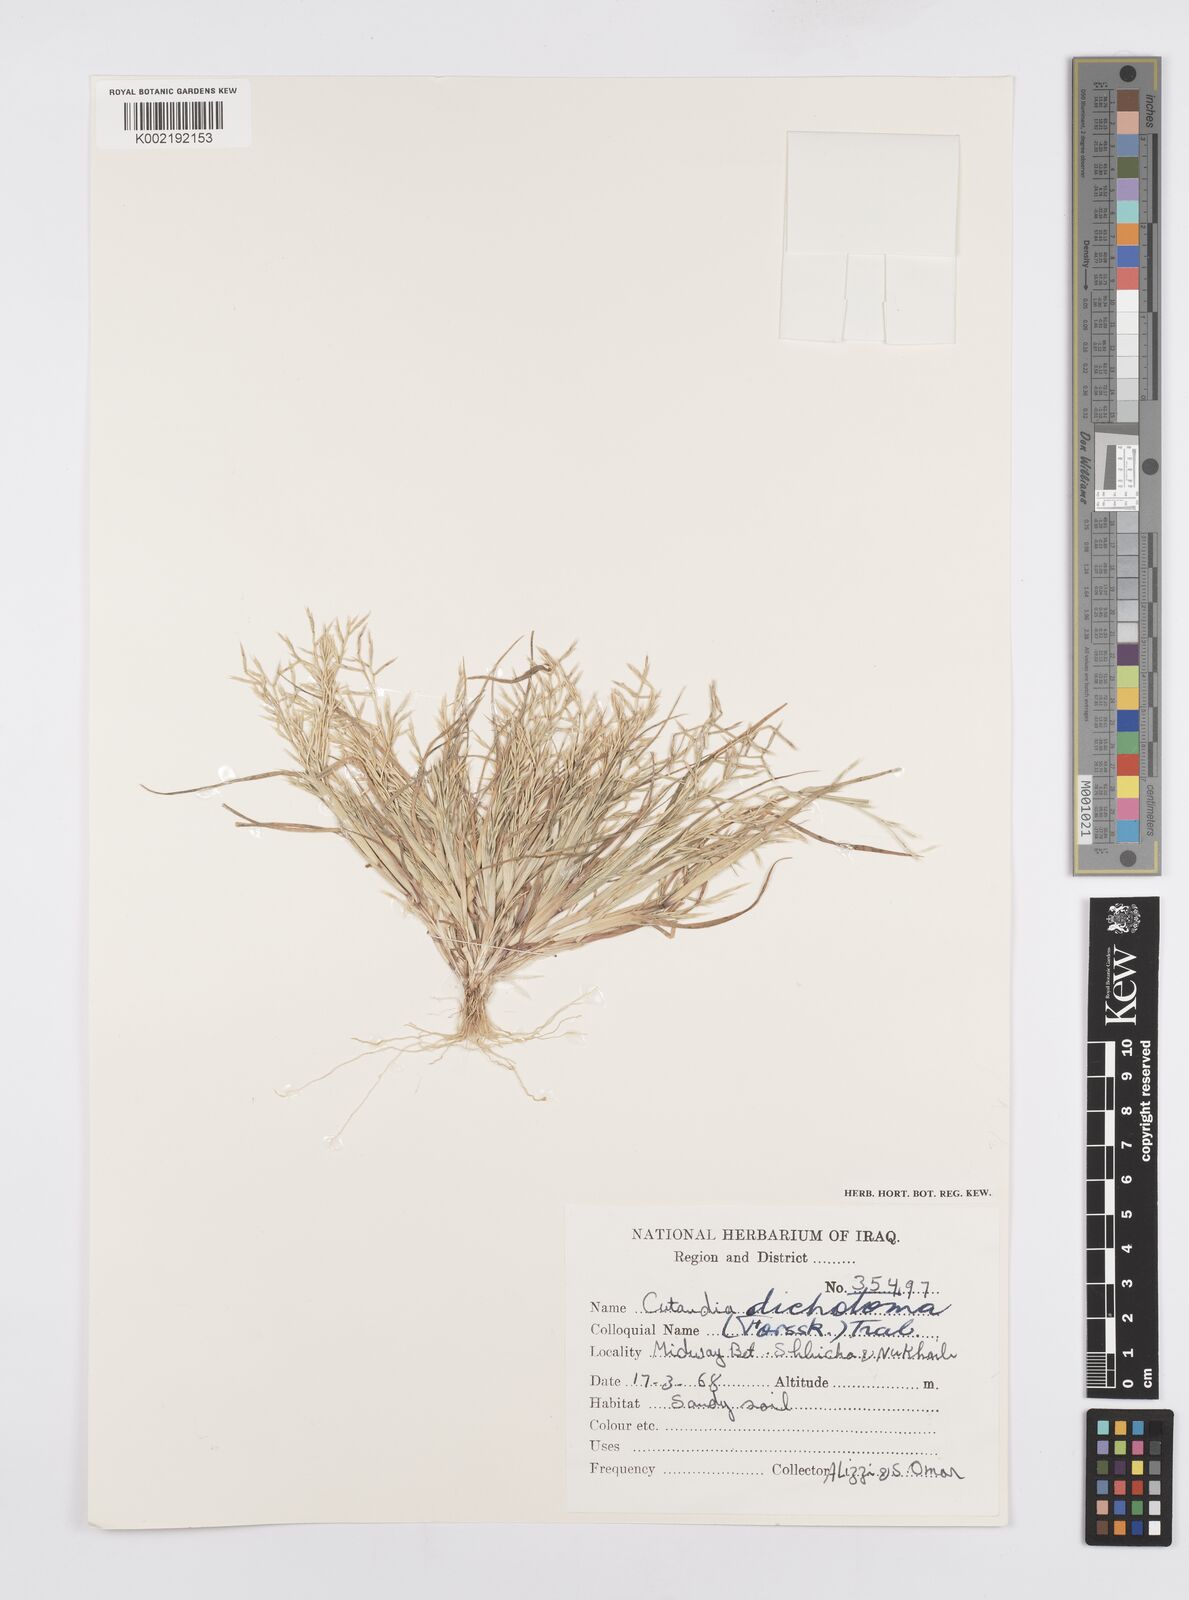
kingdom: Plantae
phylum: Tracheophyta
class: Liliopsida
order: Poales
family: Poaceae
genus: Cutandia
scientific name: Cutandia dichotoma
